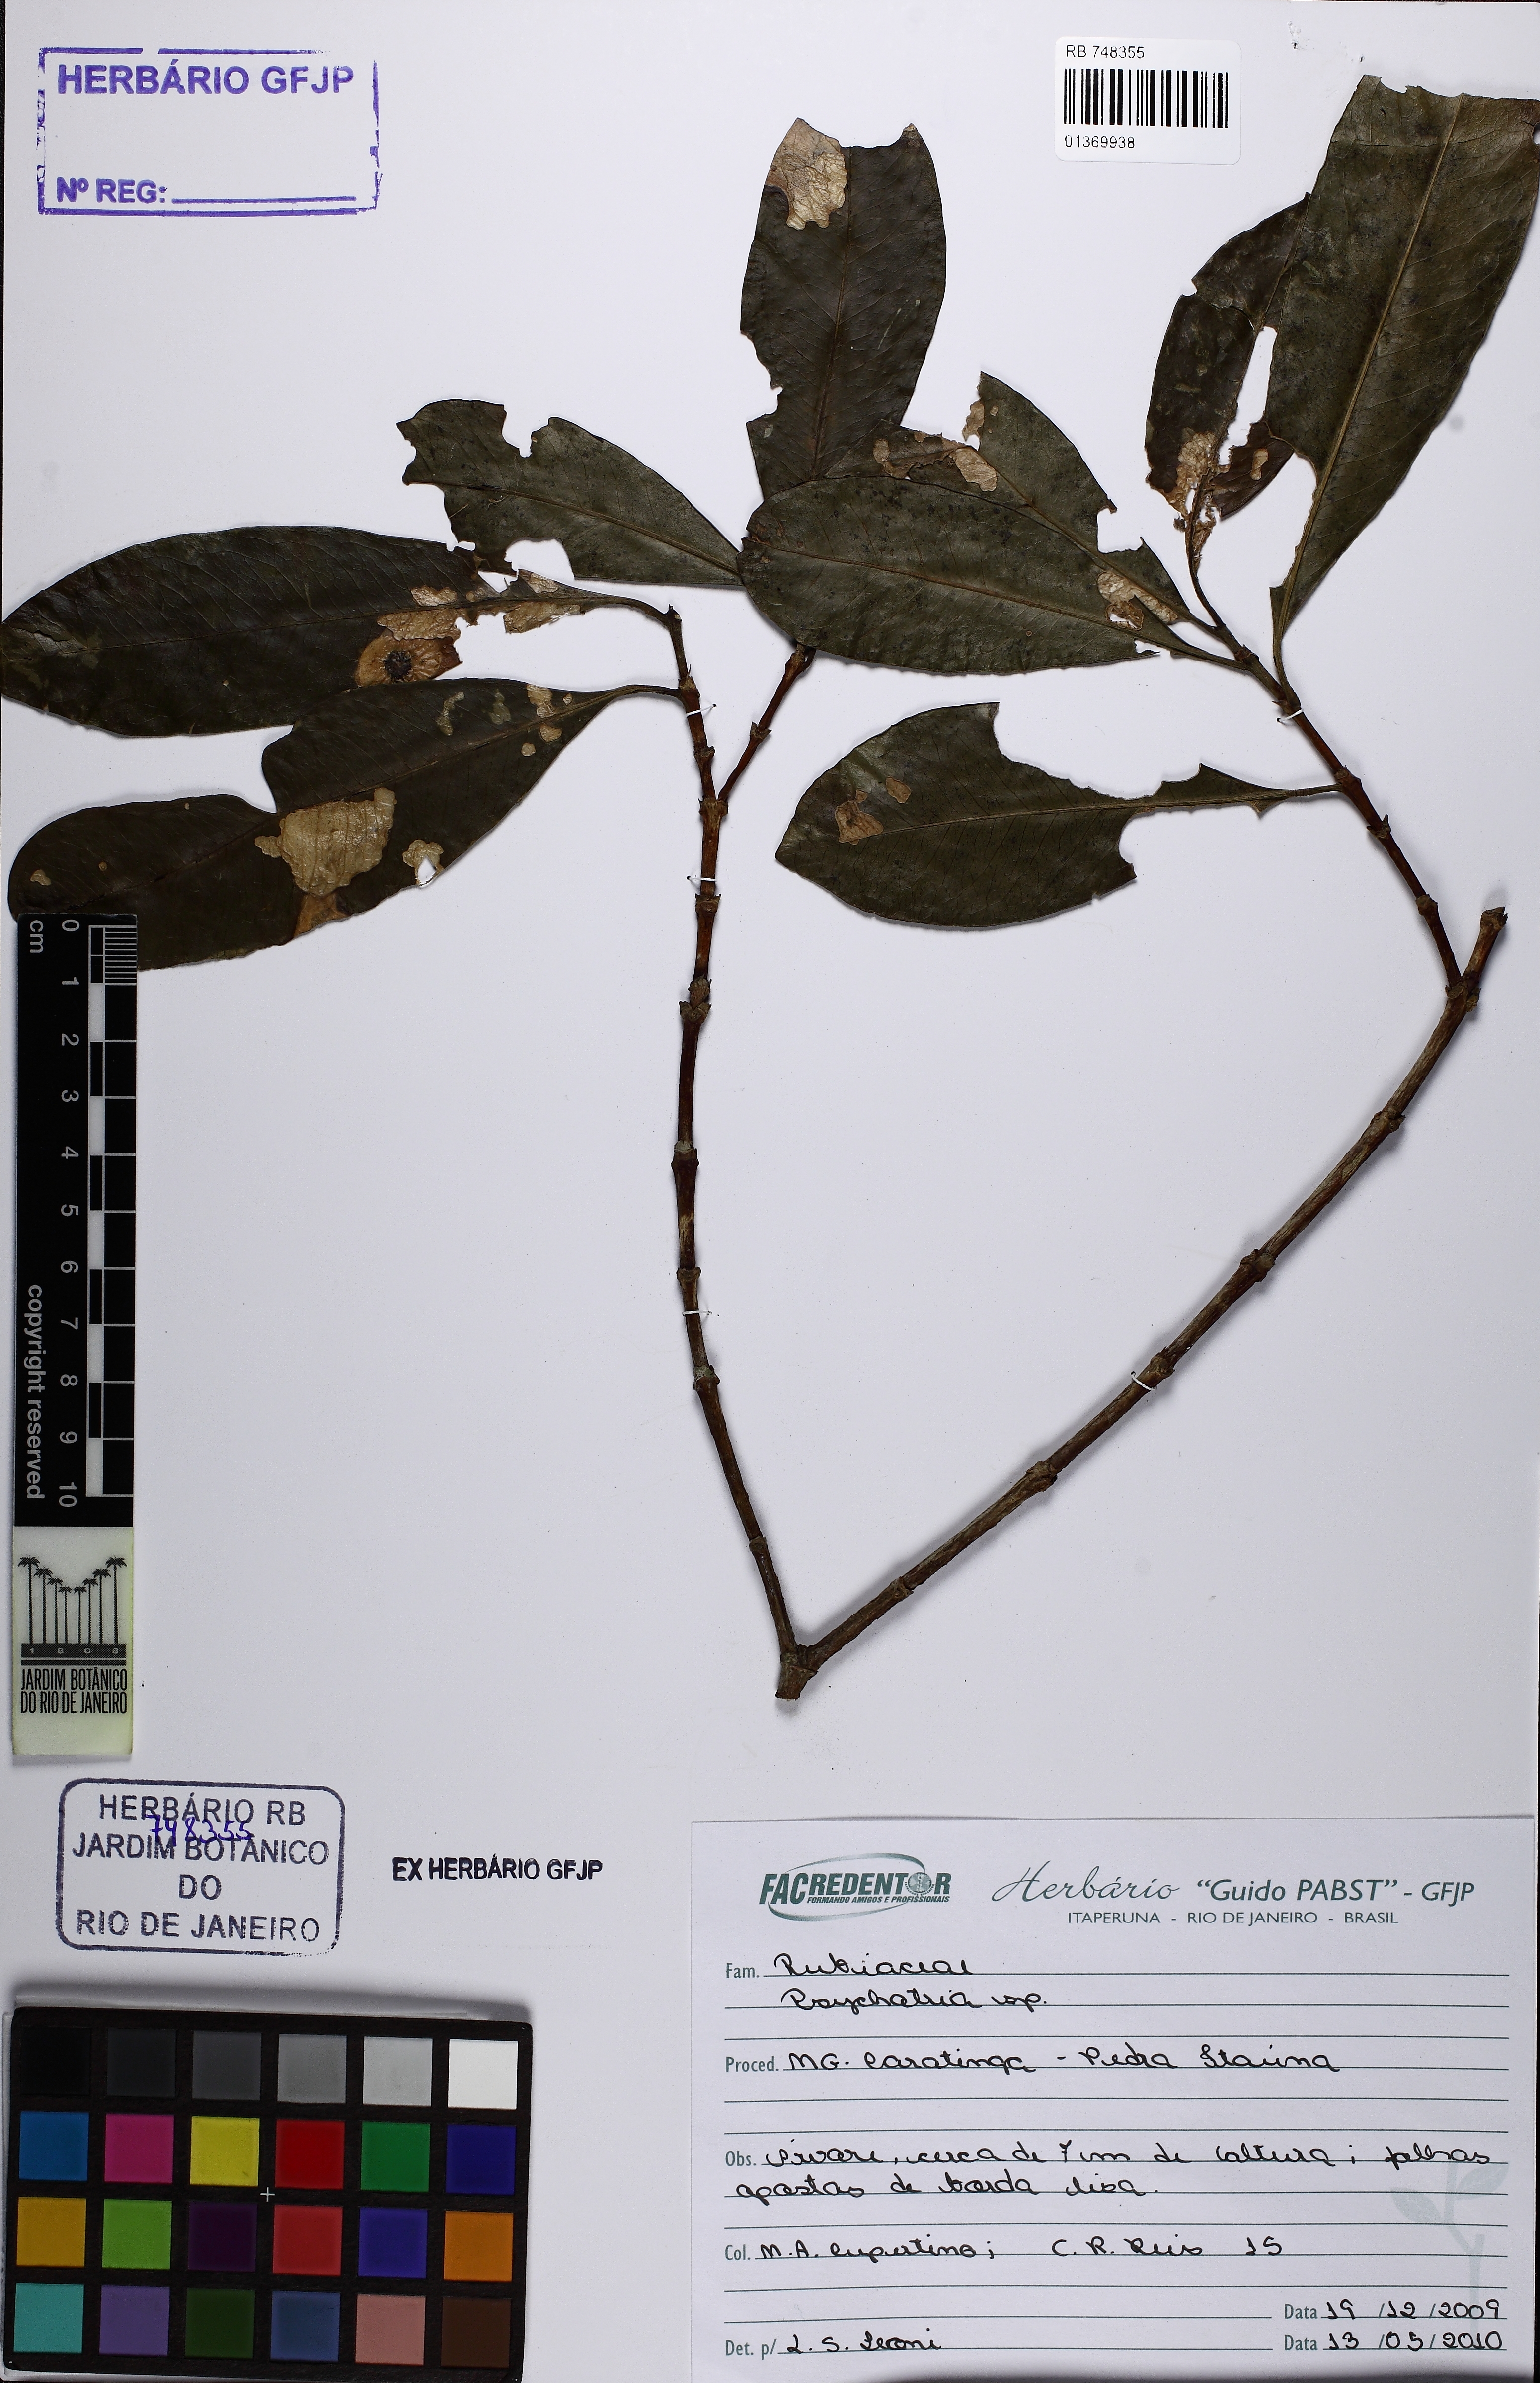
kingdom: Plantae
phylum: Tracheophyta
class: Magnoliopsida
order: Gentianales
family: Rubiaceae
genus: Psychotria
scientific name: Psychotria
